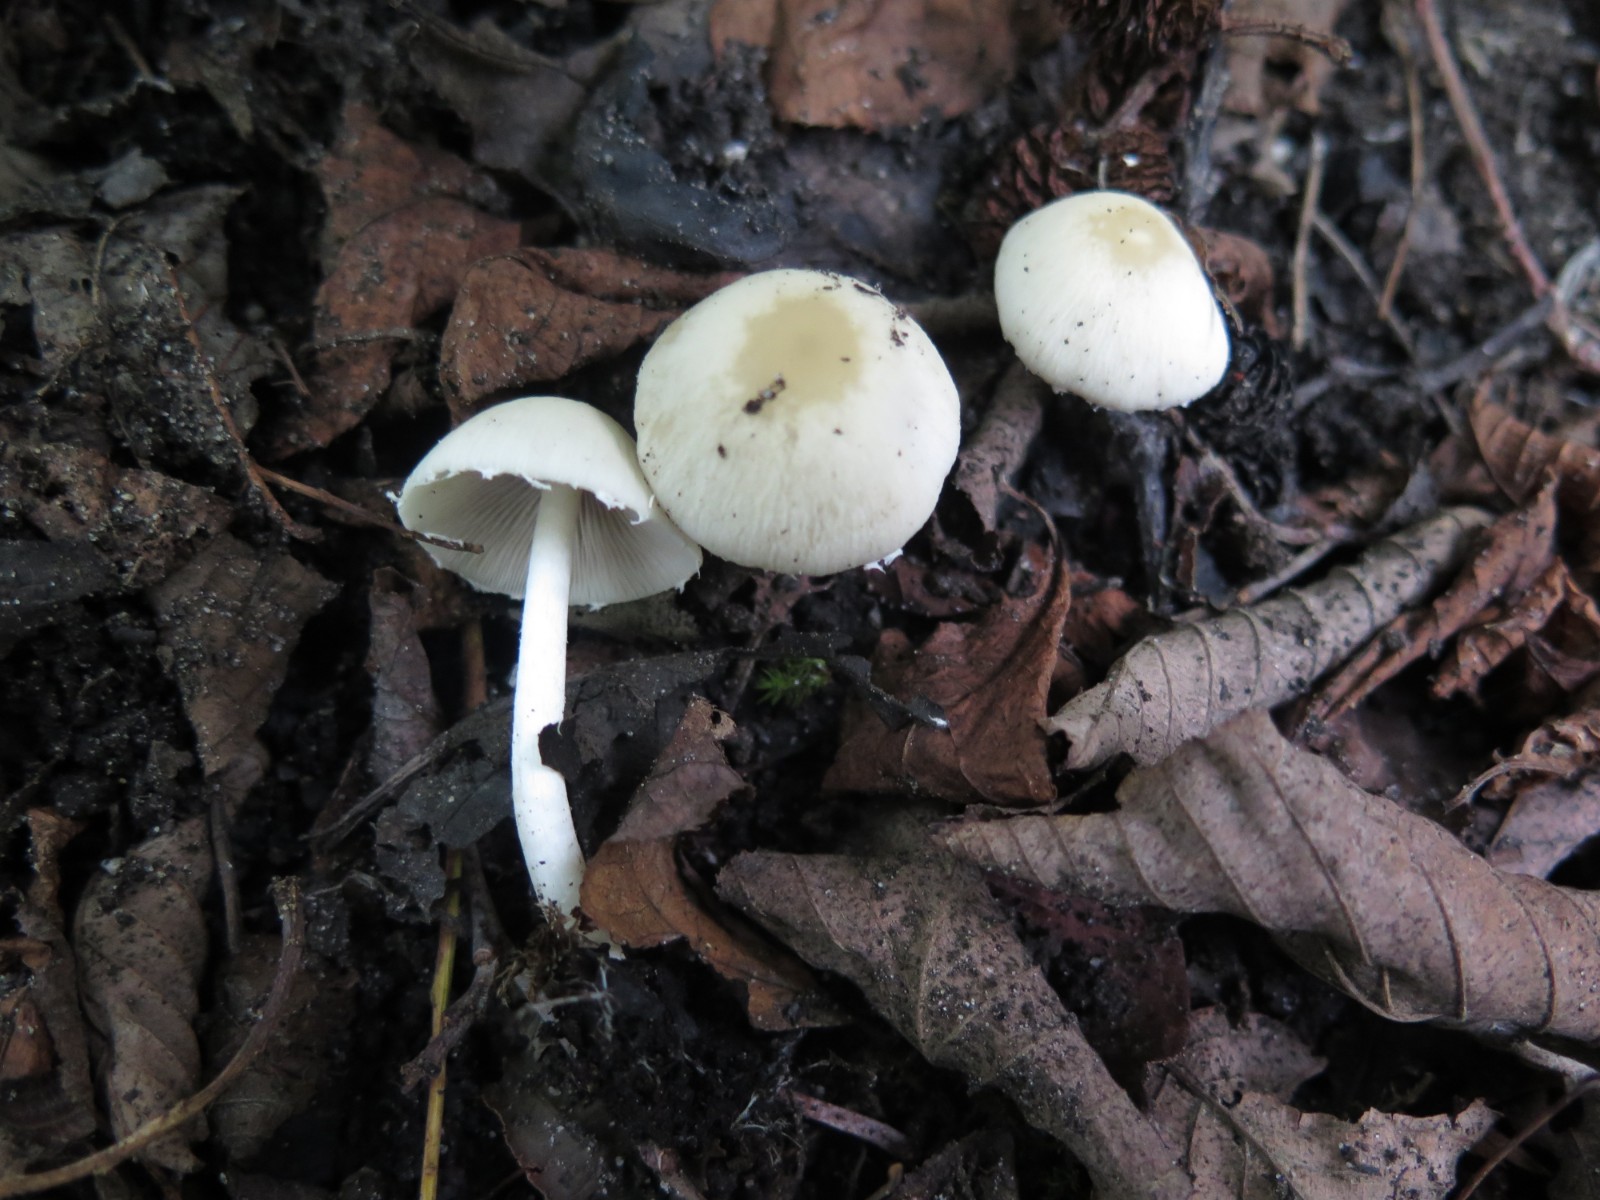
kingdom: Fungi
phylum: Basidiomycota
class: Agaricomycetes
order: Agaricales
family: Psathyrellaceae
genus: Candolleomyces
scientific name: Candolleomyces candolleanus
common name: Candolles mørkhat
